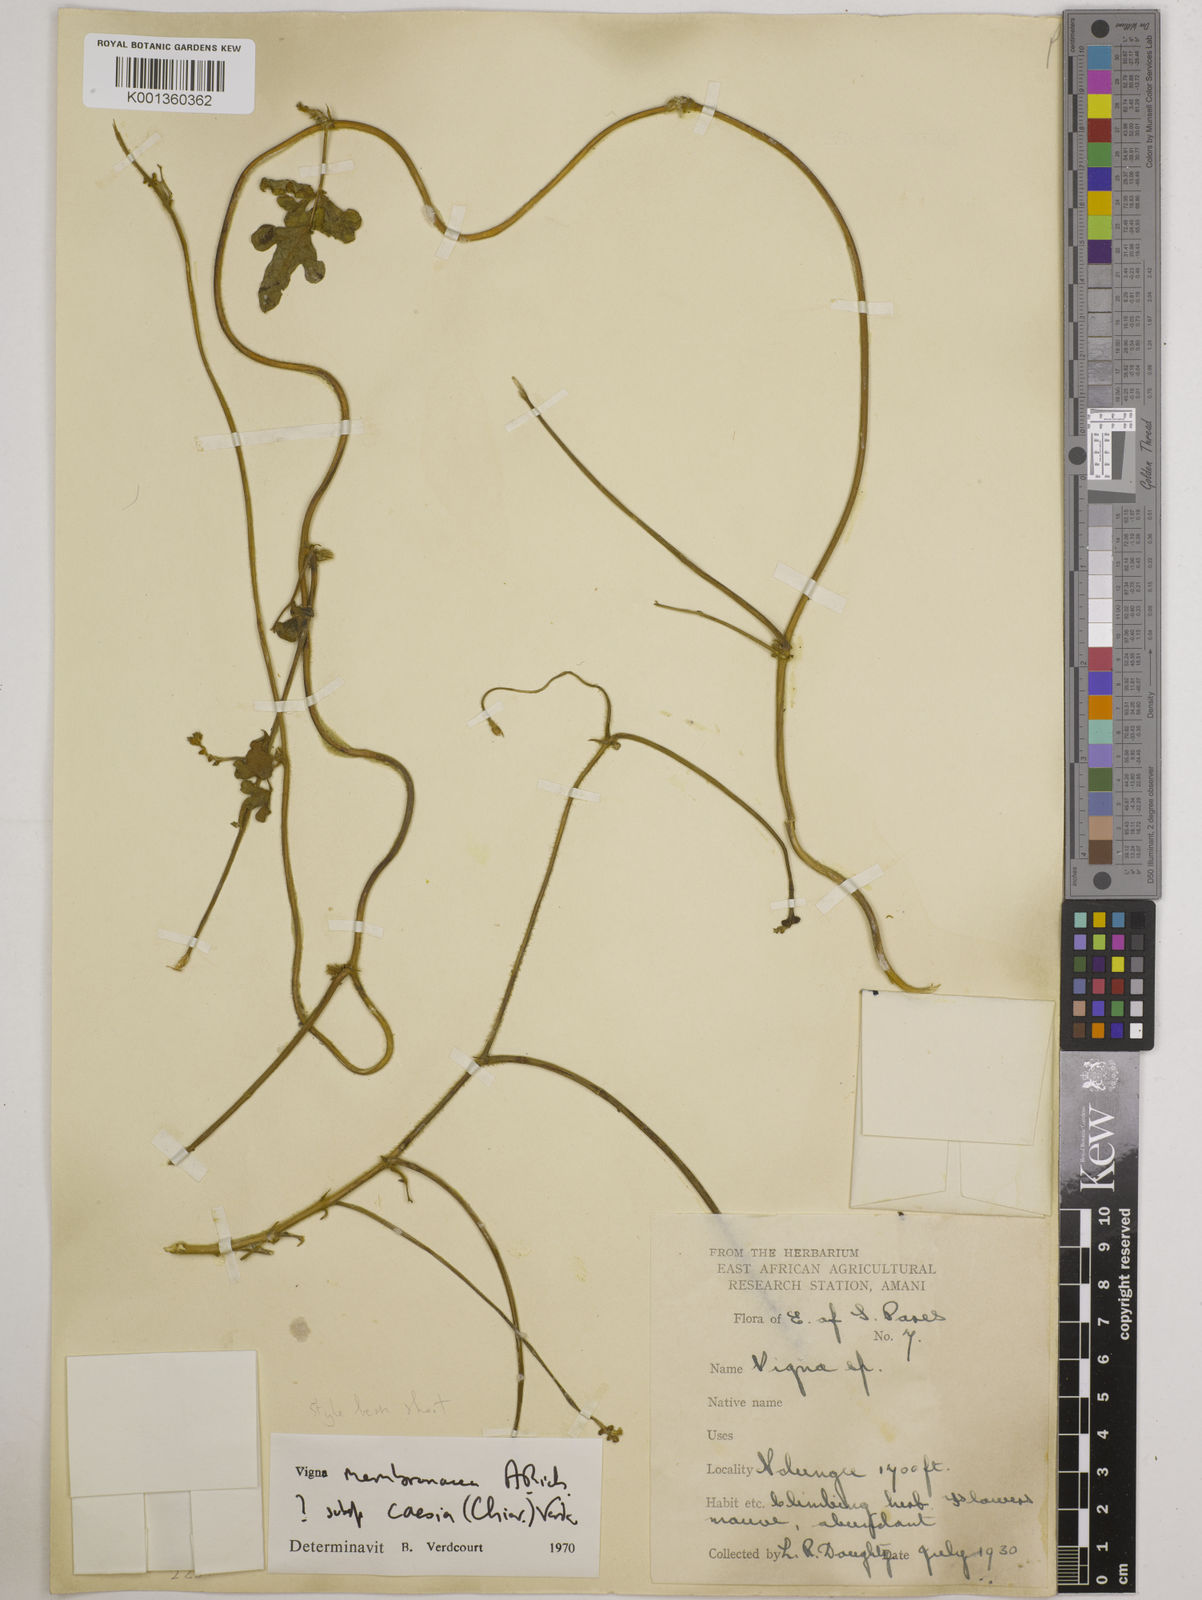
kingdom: Plantae
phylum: Tracheophyta
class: Magnoliopsida
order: Fabales
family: Fabaceae
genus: Vigna
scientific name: Vigna
